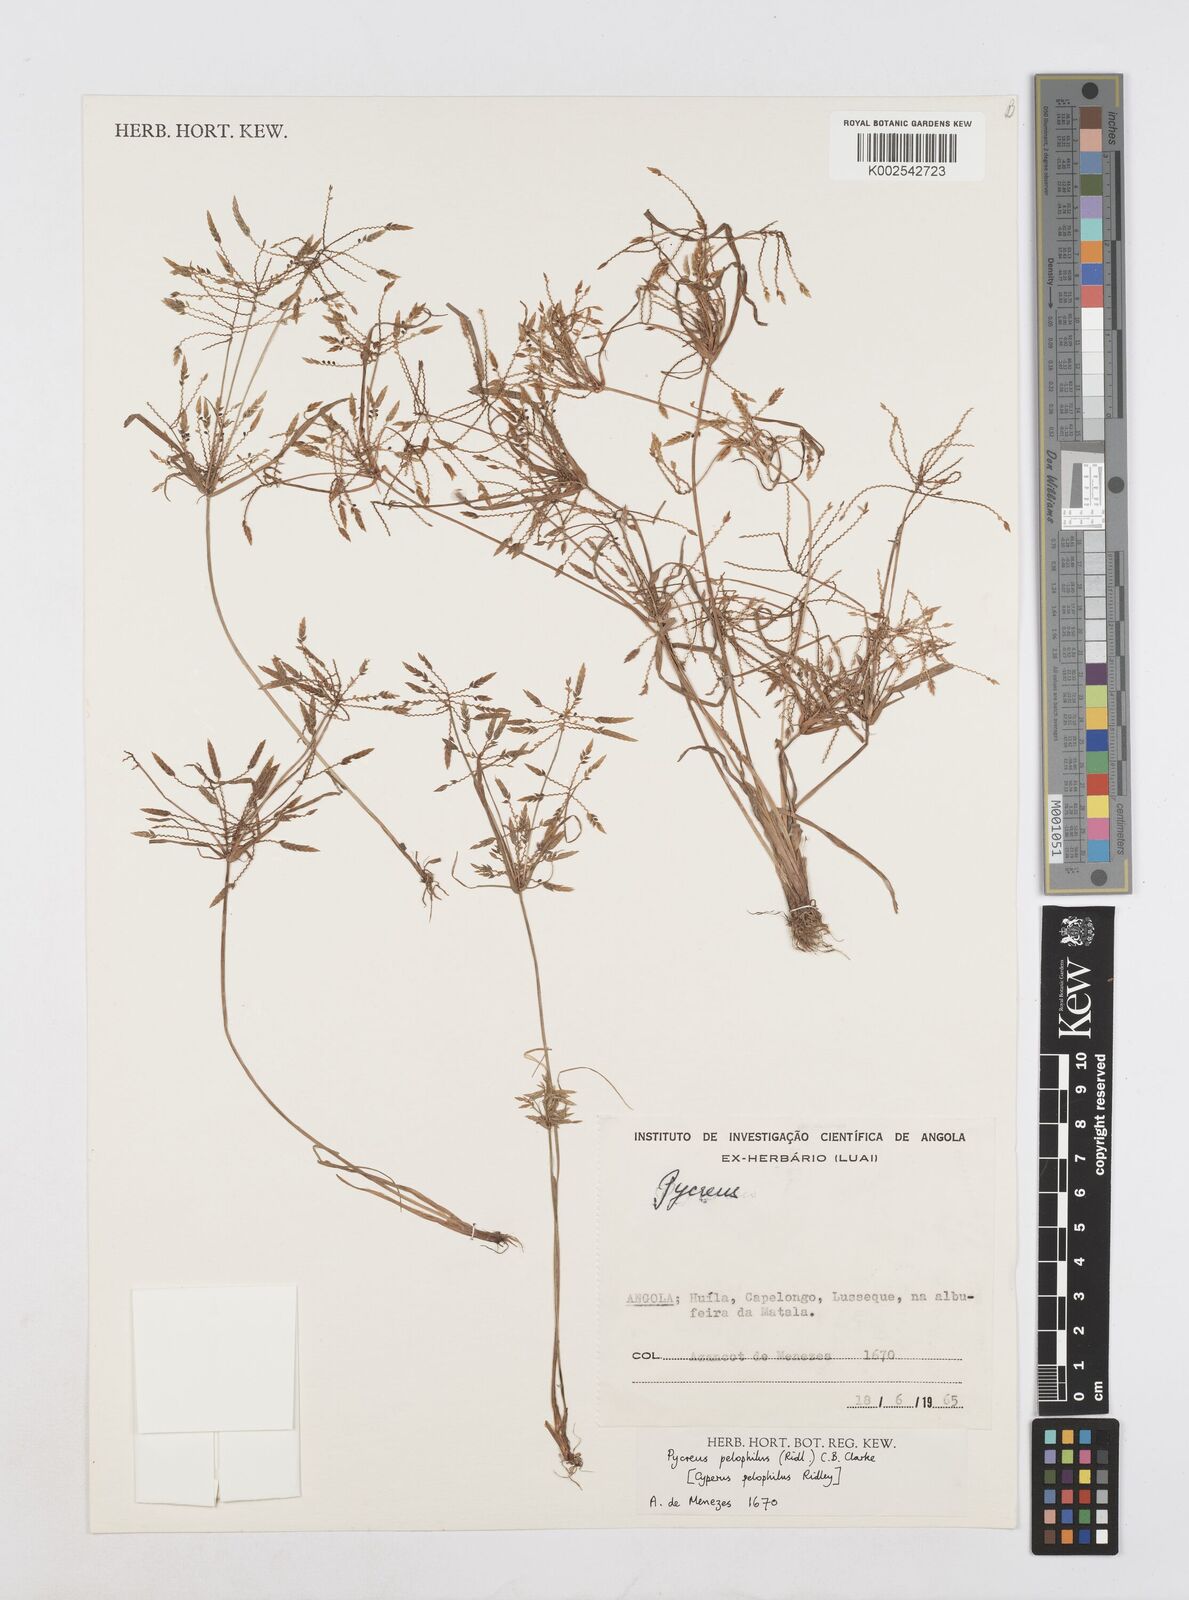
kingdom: Plantae
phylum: Tracheophyta
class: Liliopsida
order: Poales
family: Cyperaceae
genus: Cyperus
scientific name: Cyperus pelophilus
